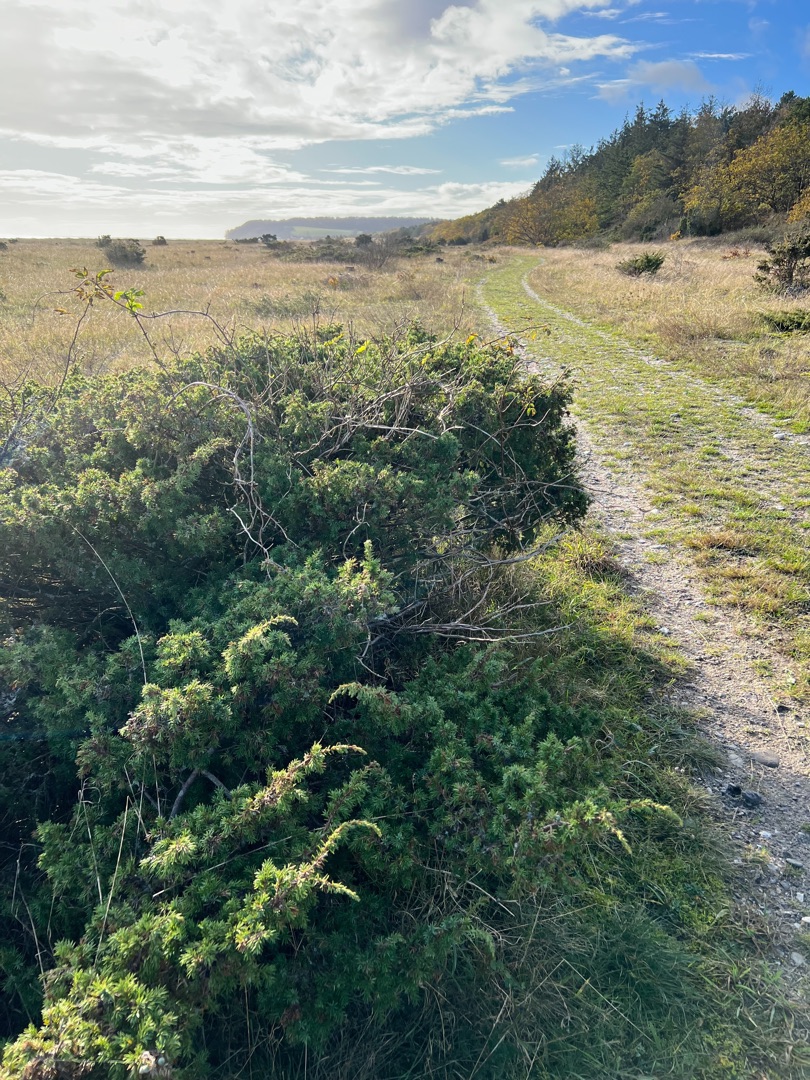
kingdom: Plantae
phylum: Tracheophyta
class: Pinopsida
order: Pinales
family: Cupressaceae
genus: Juniperus
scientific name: Juniperus communis
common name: Almindelig ene
